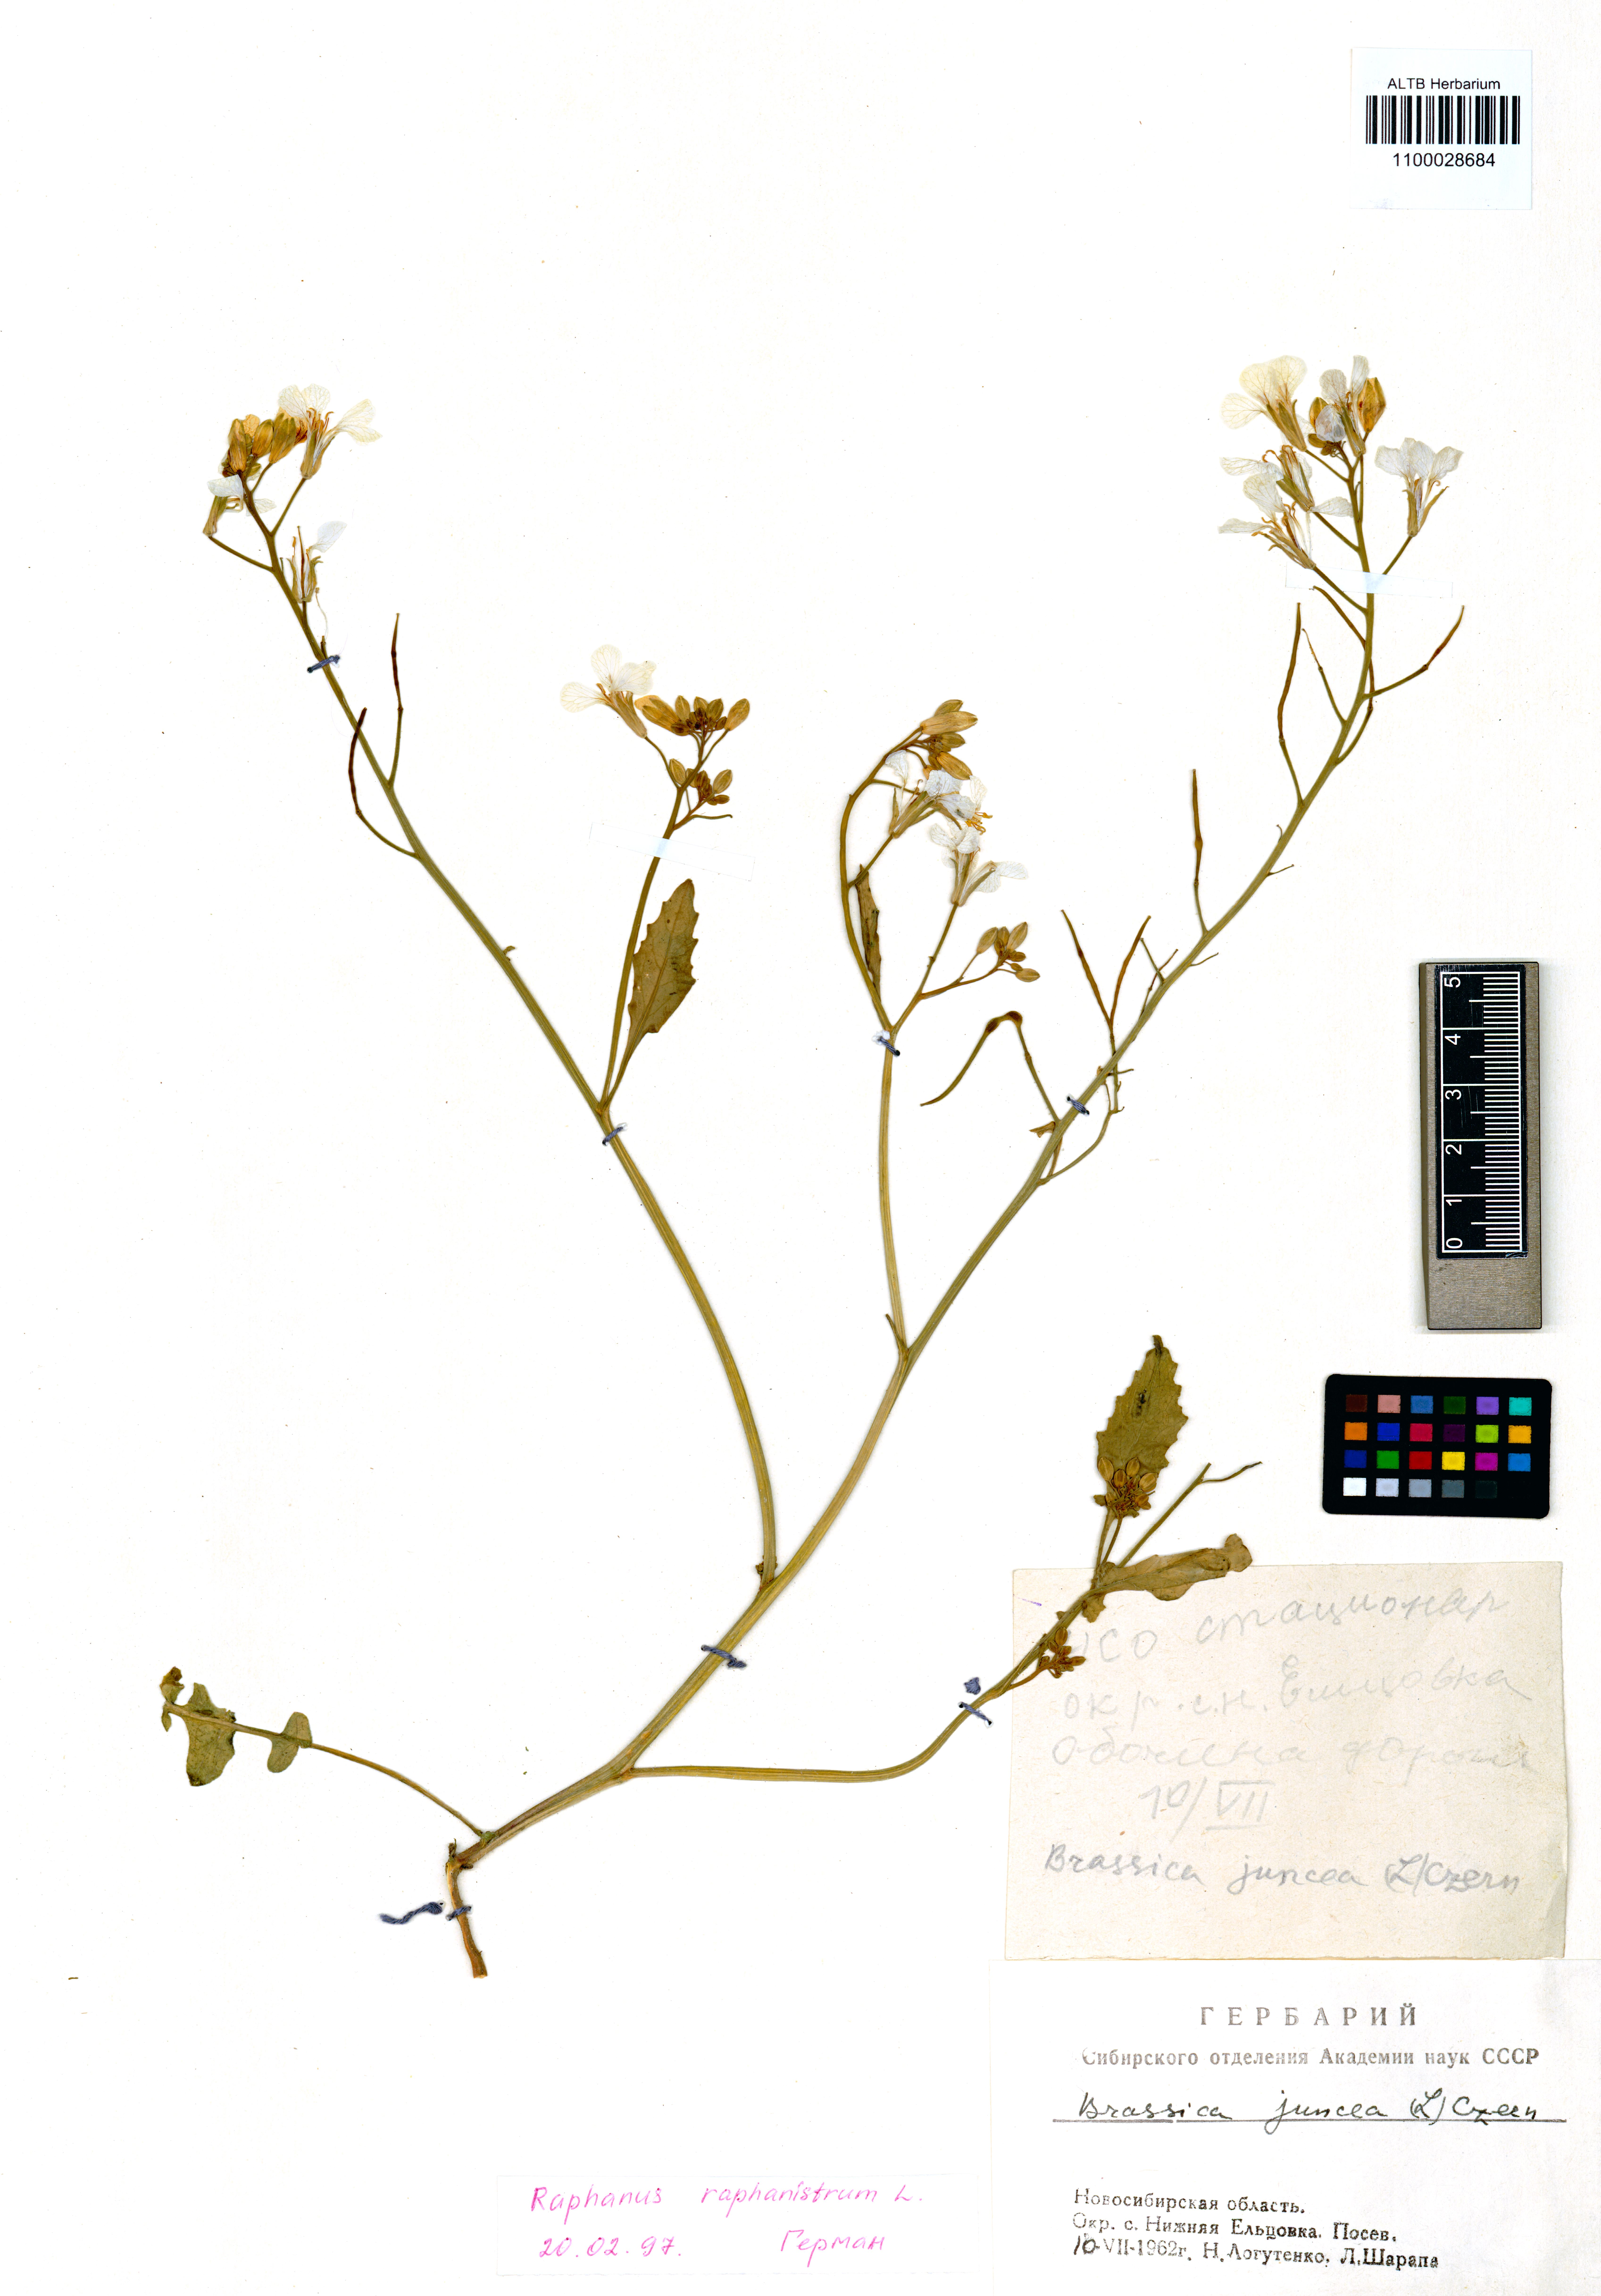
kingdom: Plantae
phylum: Tracheophyta
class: Magnoliopsida
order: Brassicales
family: Brassicaceae
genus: Raphanus
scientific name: Raphanus raphanistrum
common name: Wild radish
